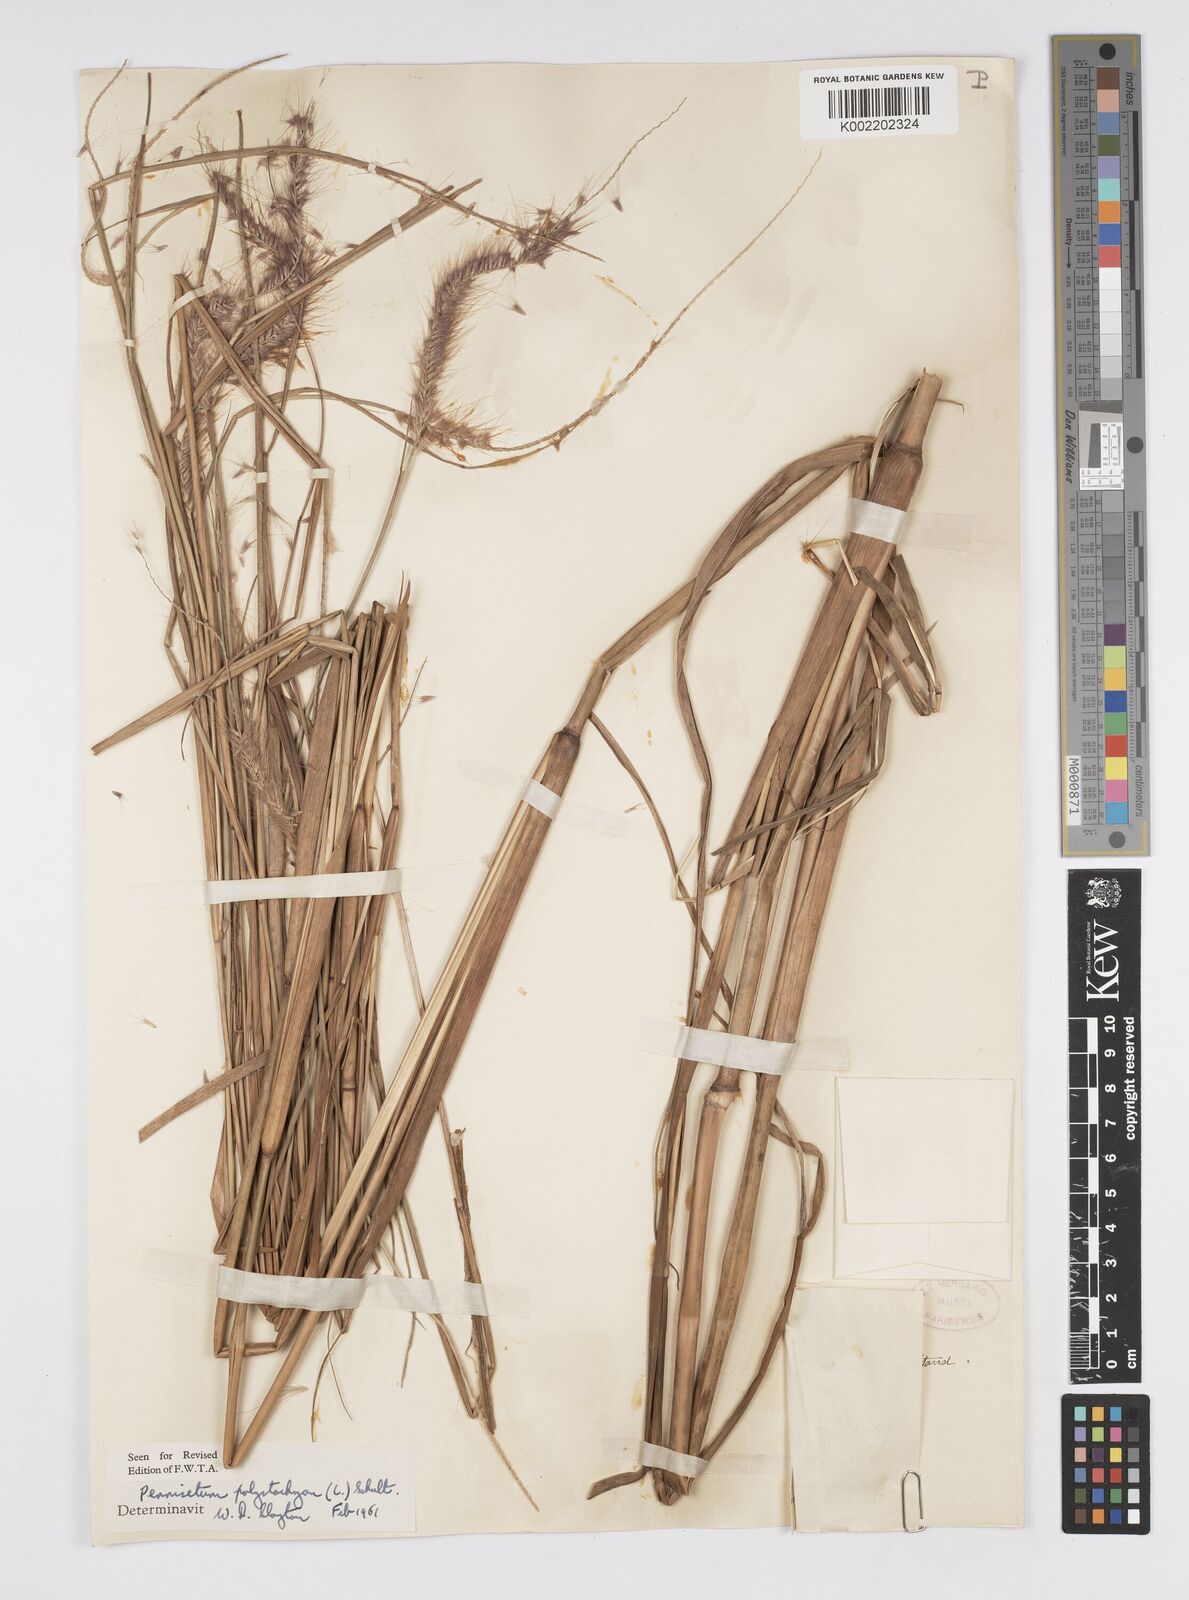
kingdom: Plantae
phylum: Tracheophyta
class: Liliopsida
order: Poales
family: Poaceae
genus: Setaria
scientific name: Setaria parviflora
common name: Knotroot bristle-grass
